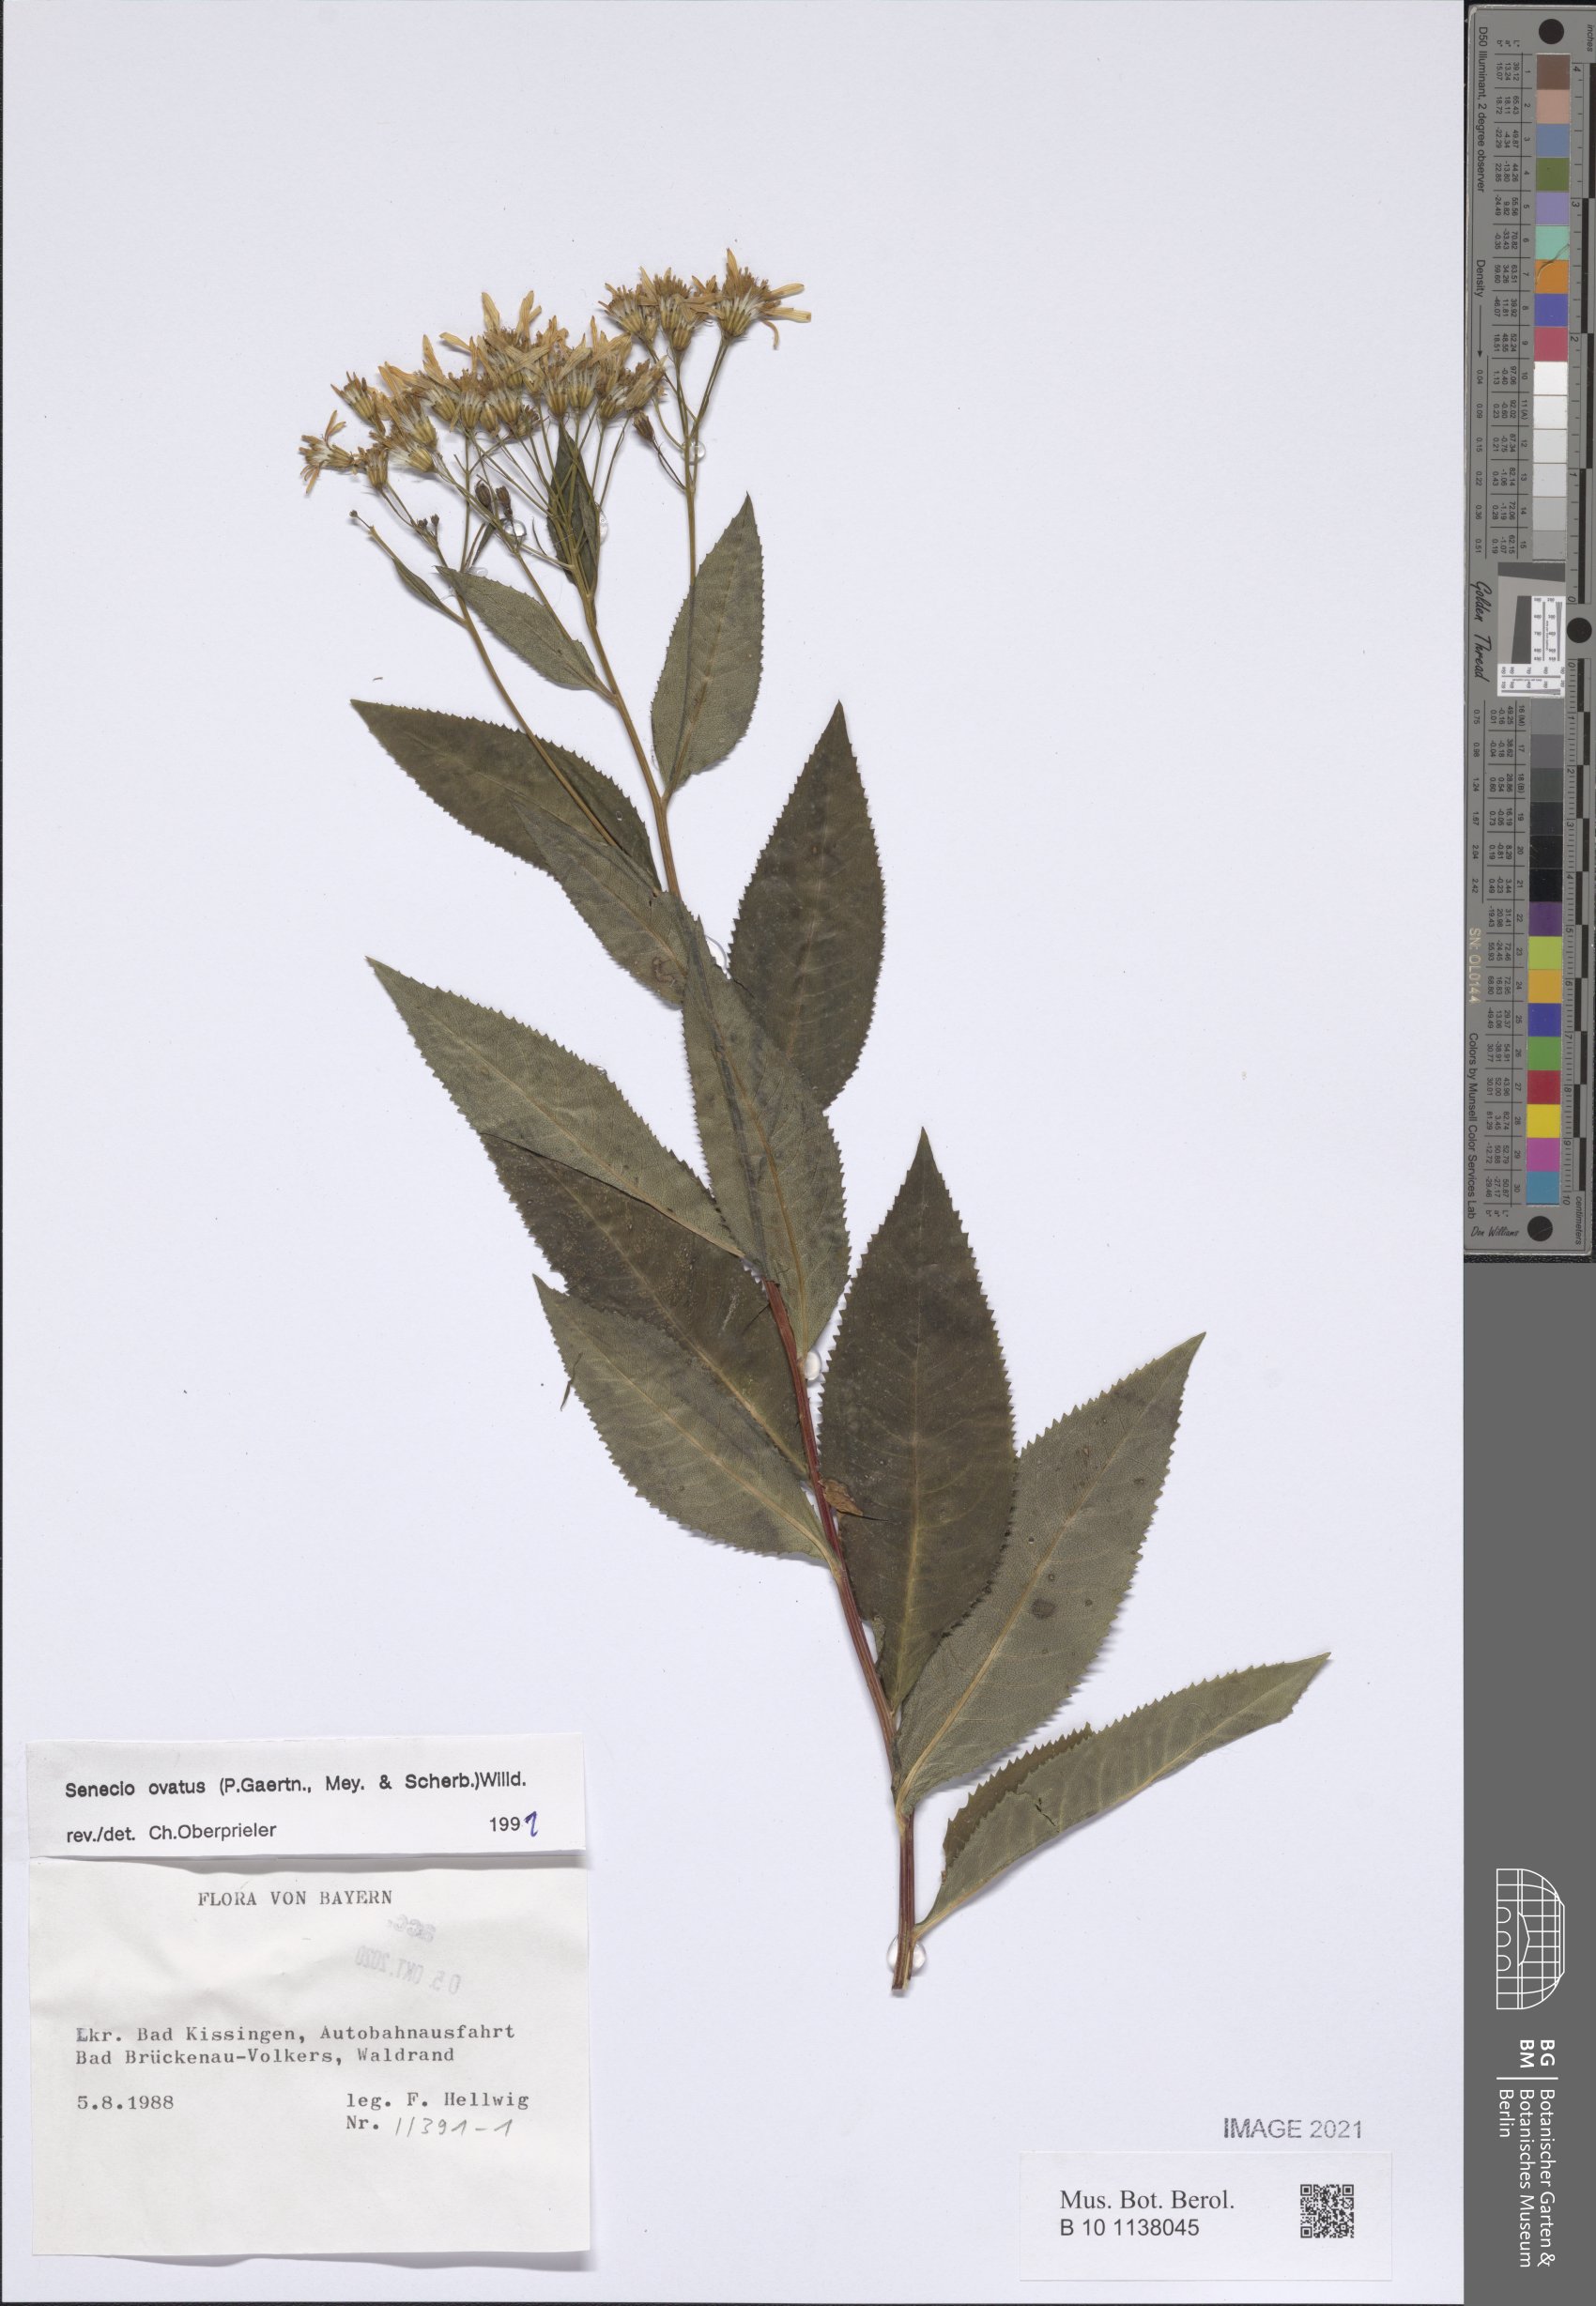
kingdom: Plantae
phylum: Tracheophyta
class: Magnoliopsida
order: Asterales
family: Asteraceae
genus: Senecio
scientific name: Senecio ovatus
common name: Wood ragwort
